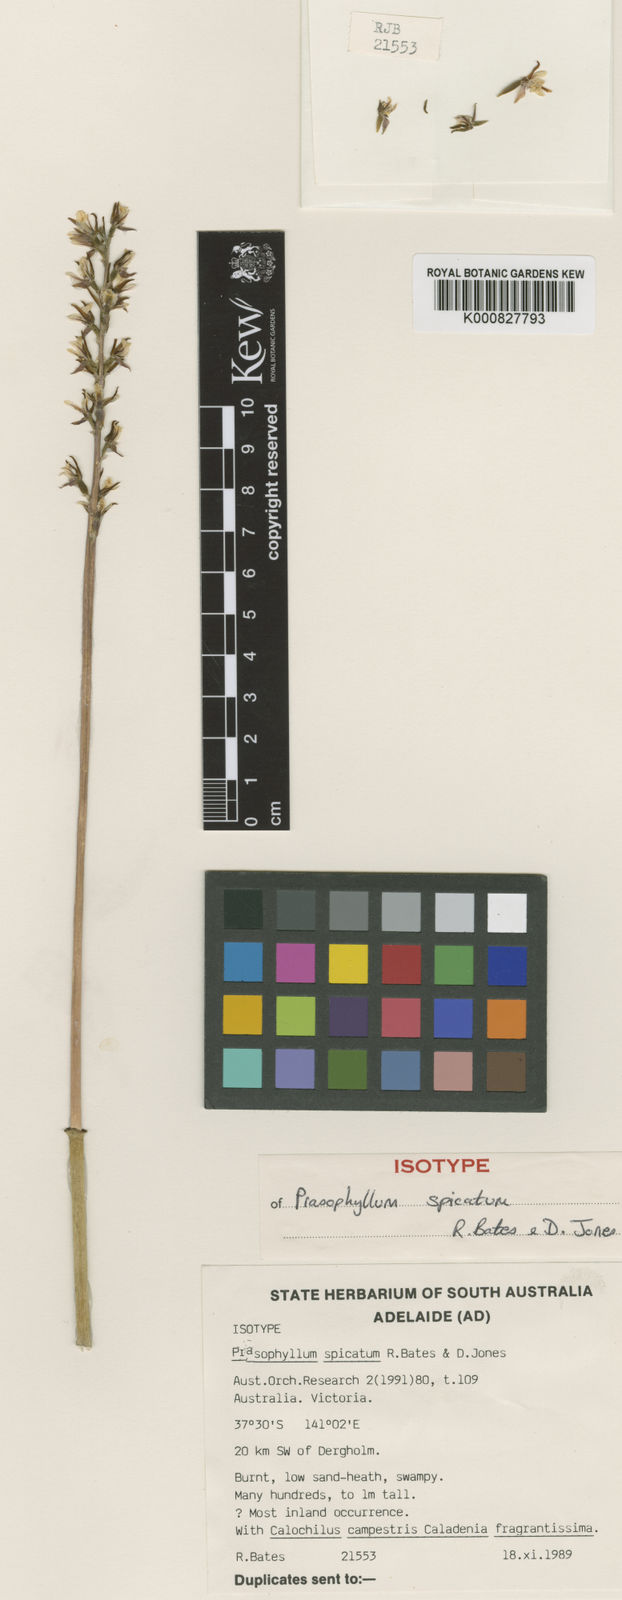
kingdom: Plantae
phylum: Tracheophyta
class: Liliopsida
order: Asparagales
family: Orchidaceae
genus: Prasophyllum
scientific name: Prasophyllum spicatum
